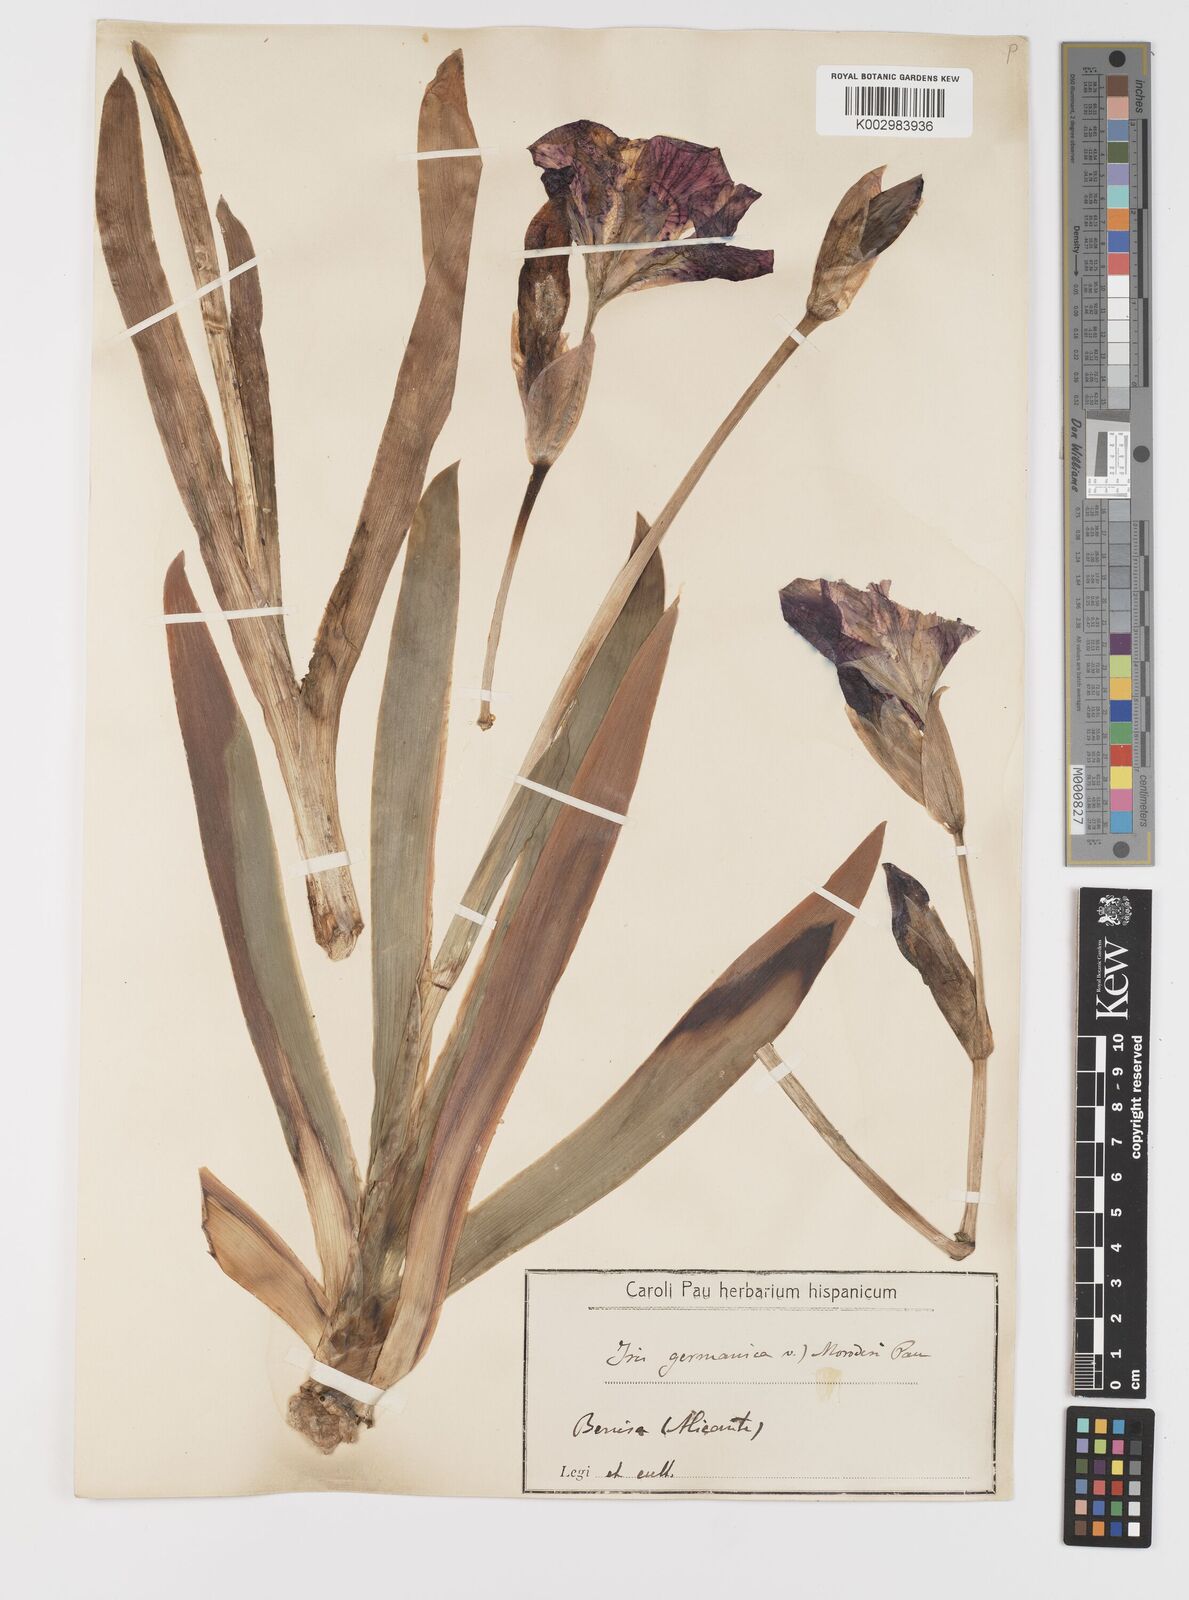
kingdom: Plantae
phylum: Tracheophyta
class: Liliopsida
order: Asparagales
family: Iridaceae
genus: Iris
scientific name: Iris germanica
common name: German iris
